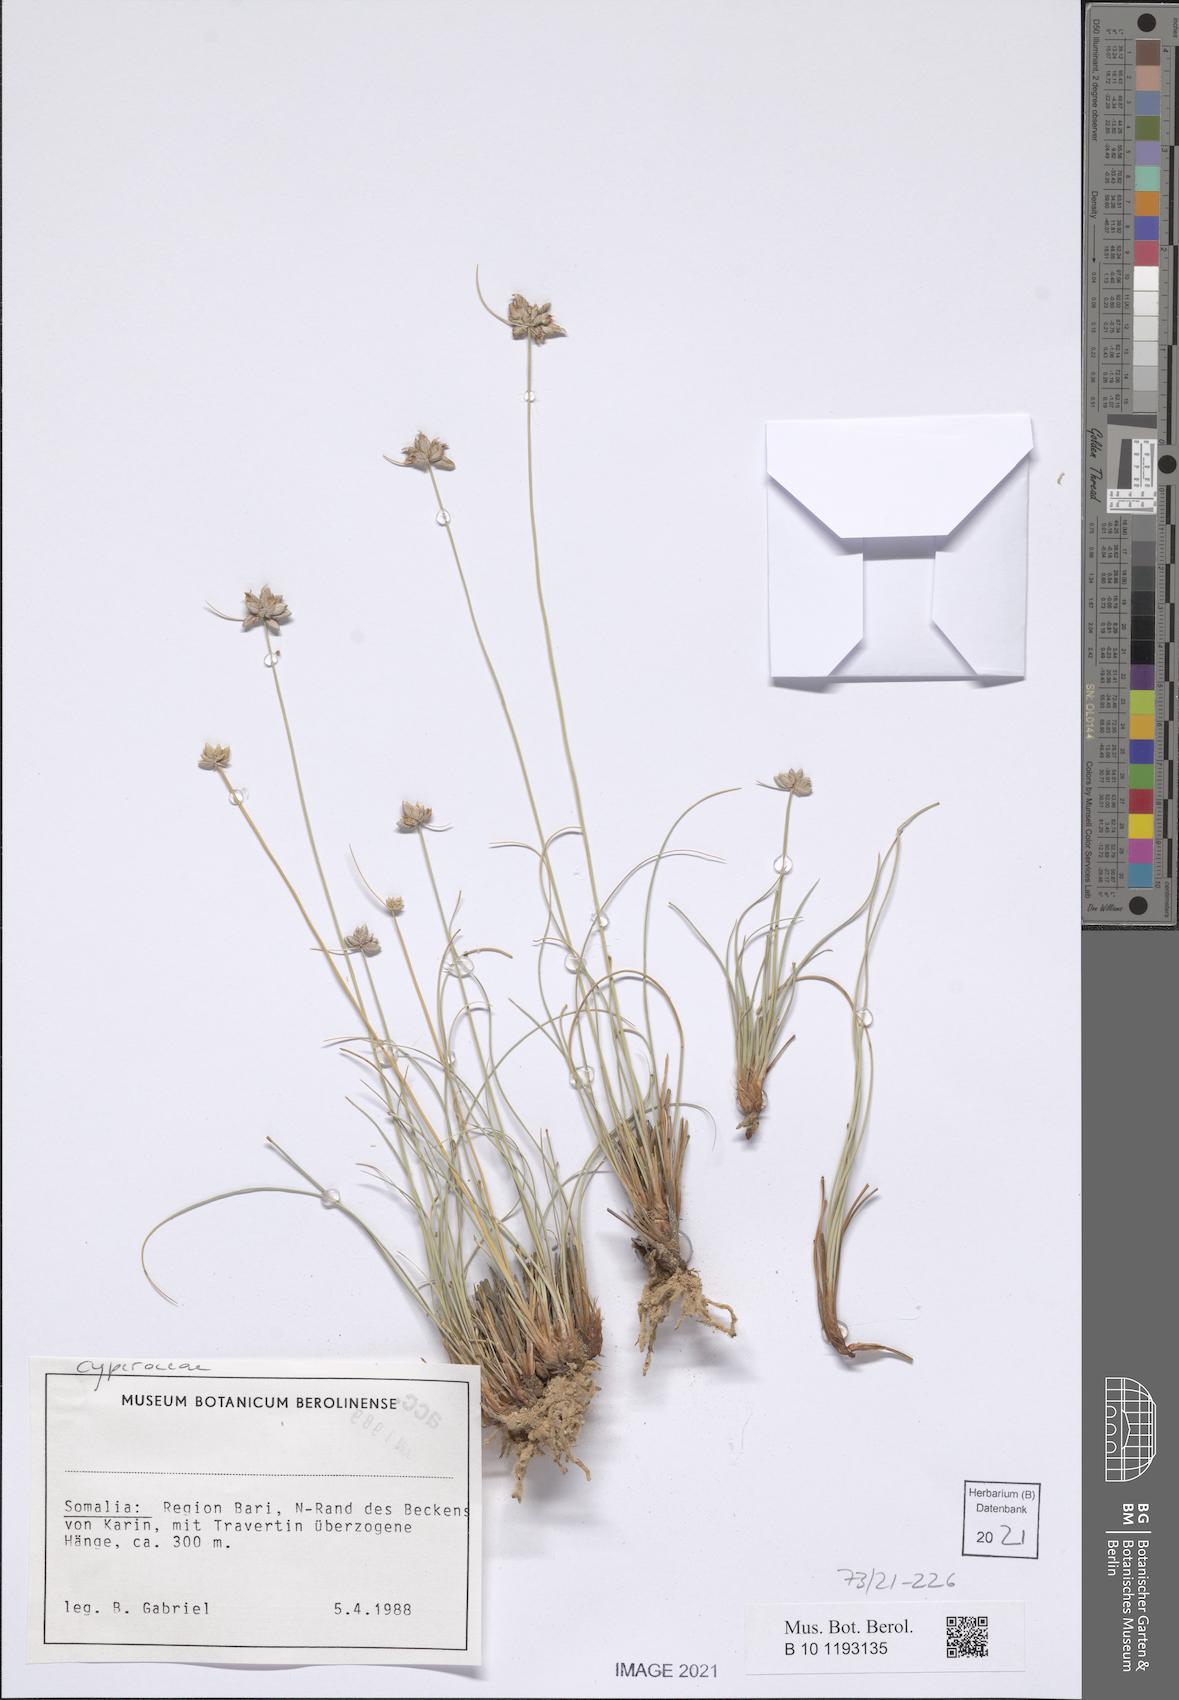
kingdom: Plantae
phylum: Tracheophyta
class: Liliopsida
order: Poales
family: Cyperaceae
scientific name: Cyperaceae
